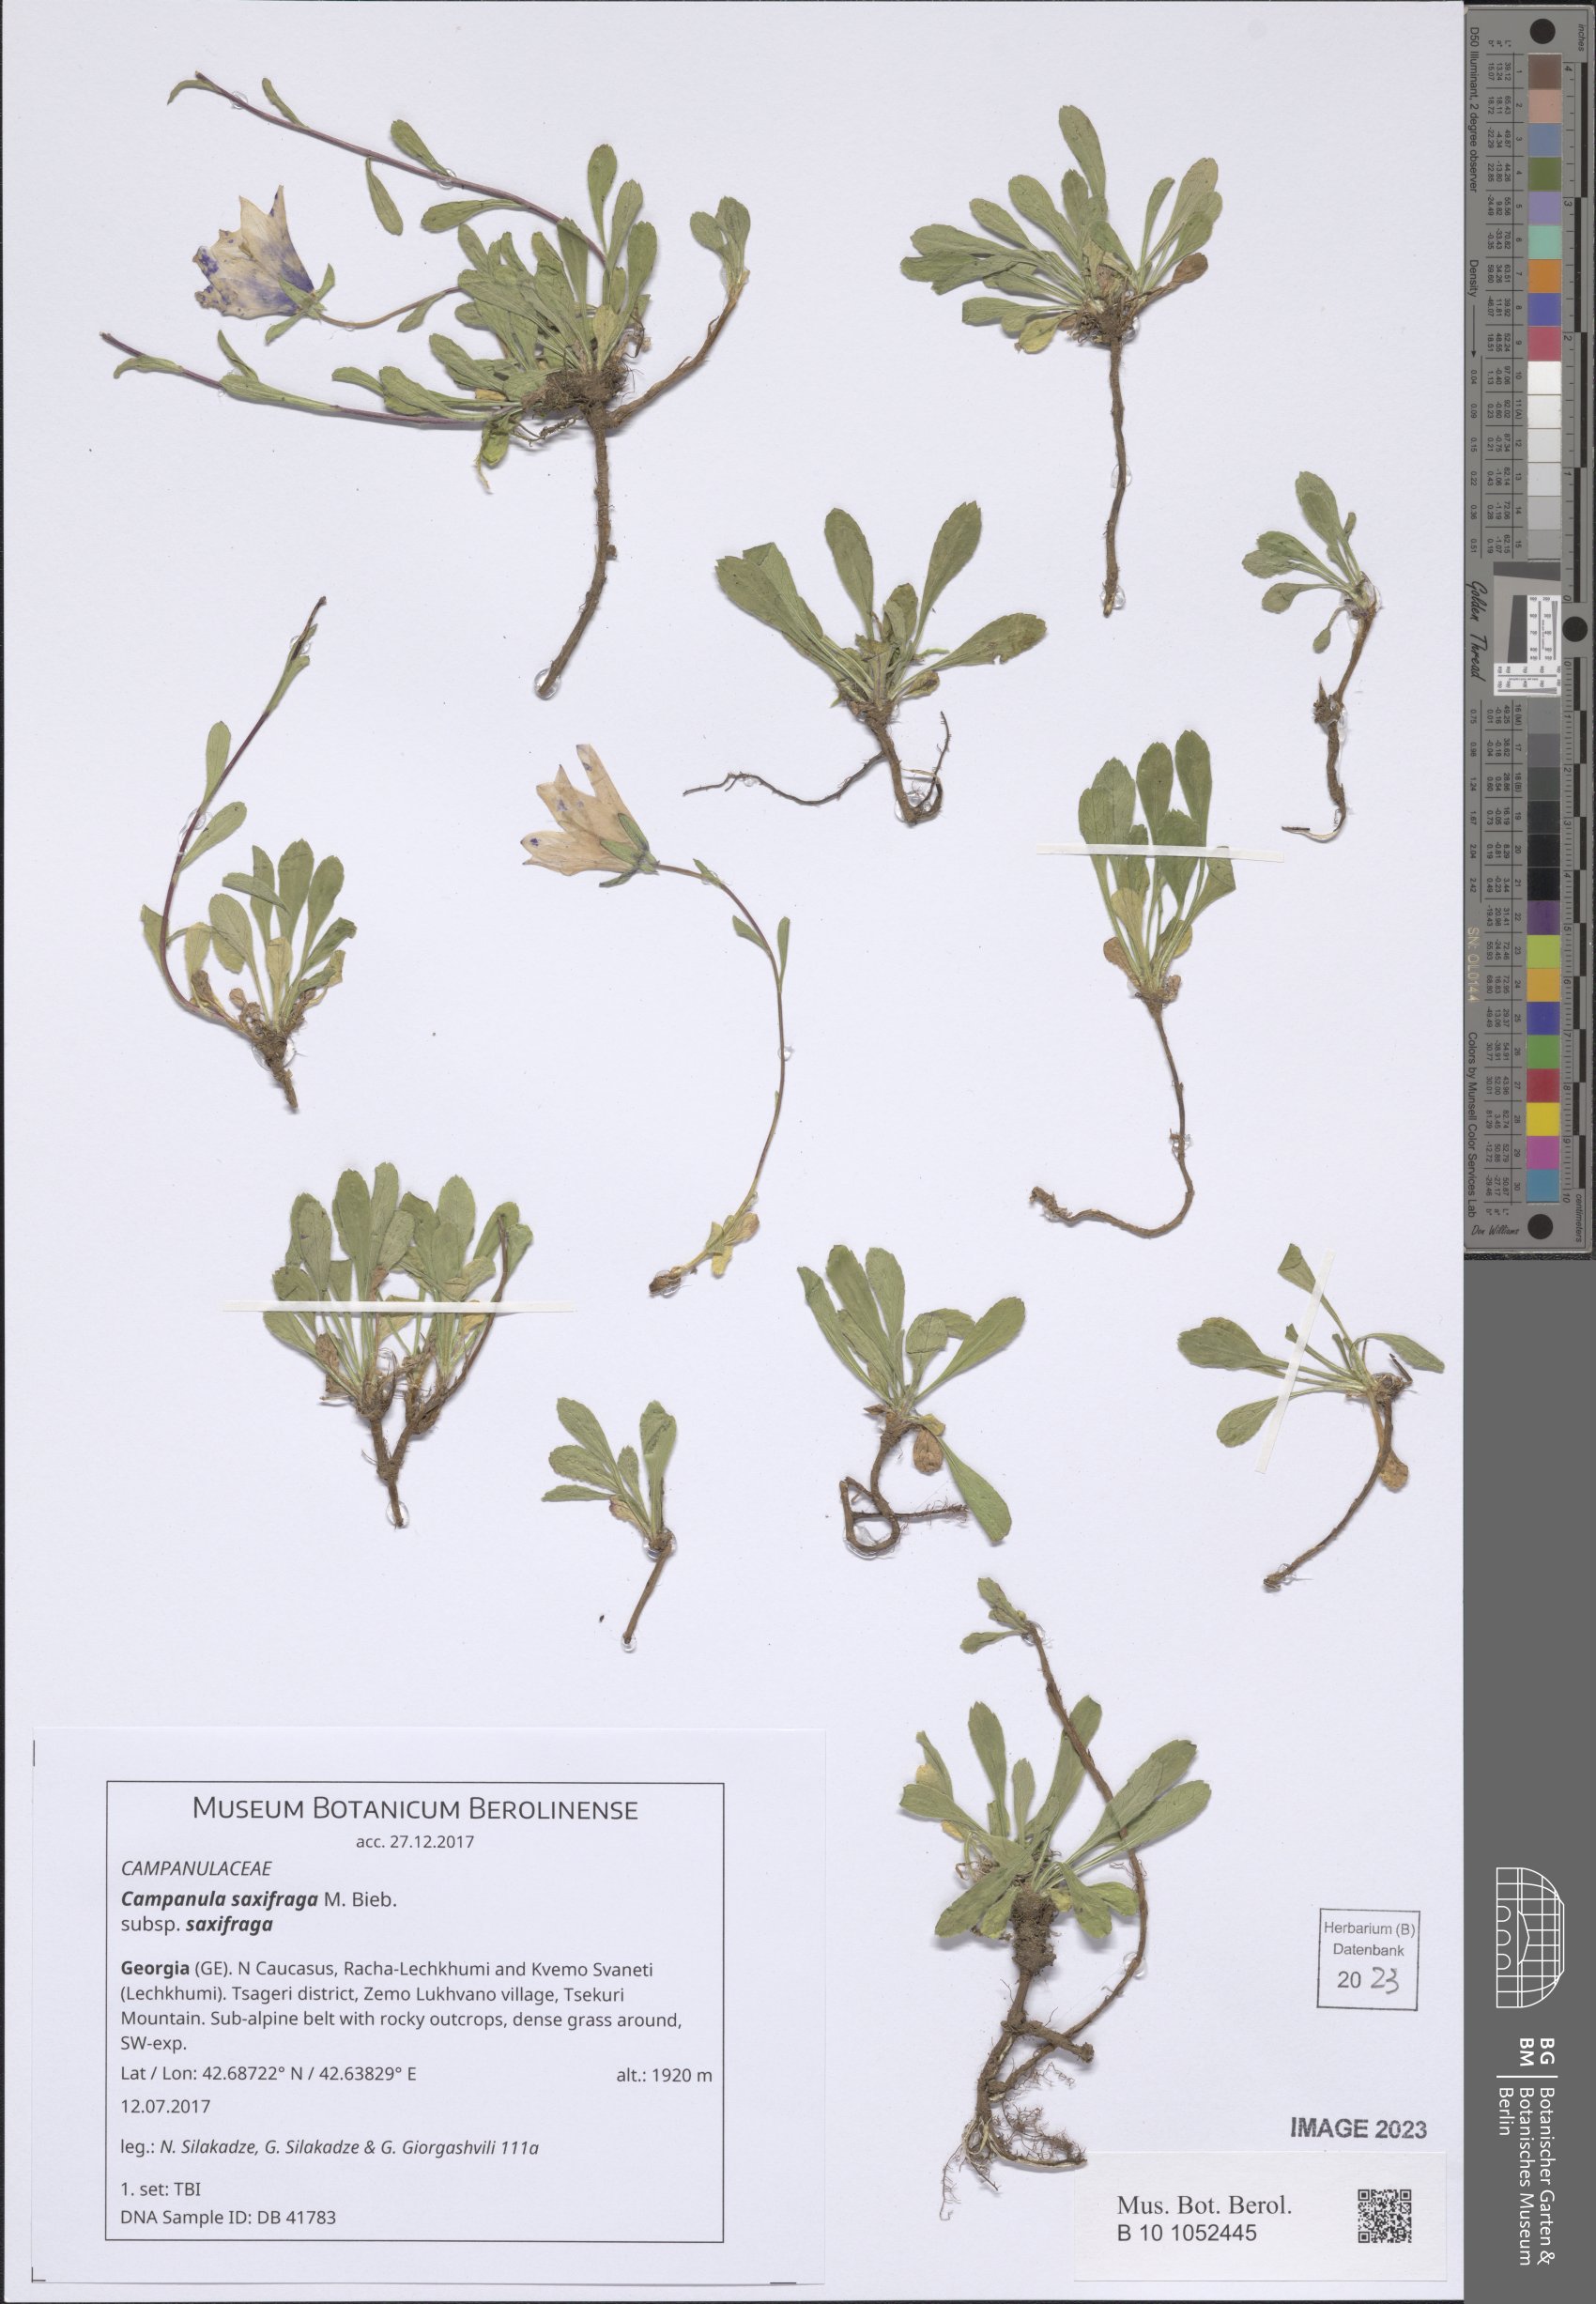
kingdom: Plantae
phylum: Tracheophyta
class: Magnoliopsida
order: Asterales
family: Campanulaceae
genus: Campanula
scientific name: Campanula saxifraga
